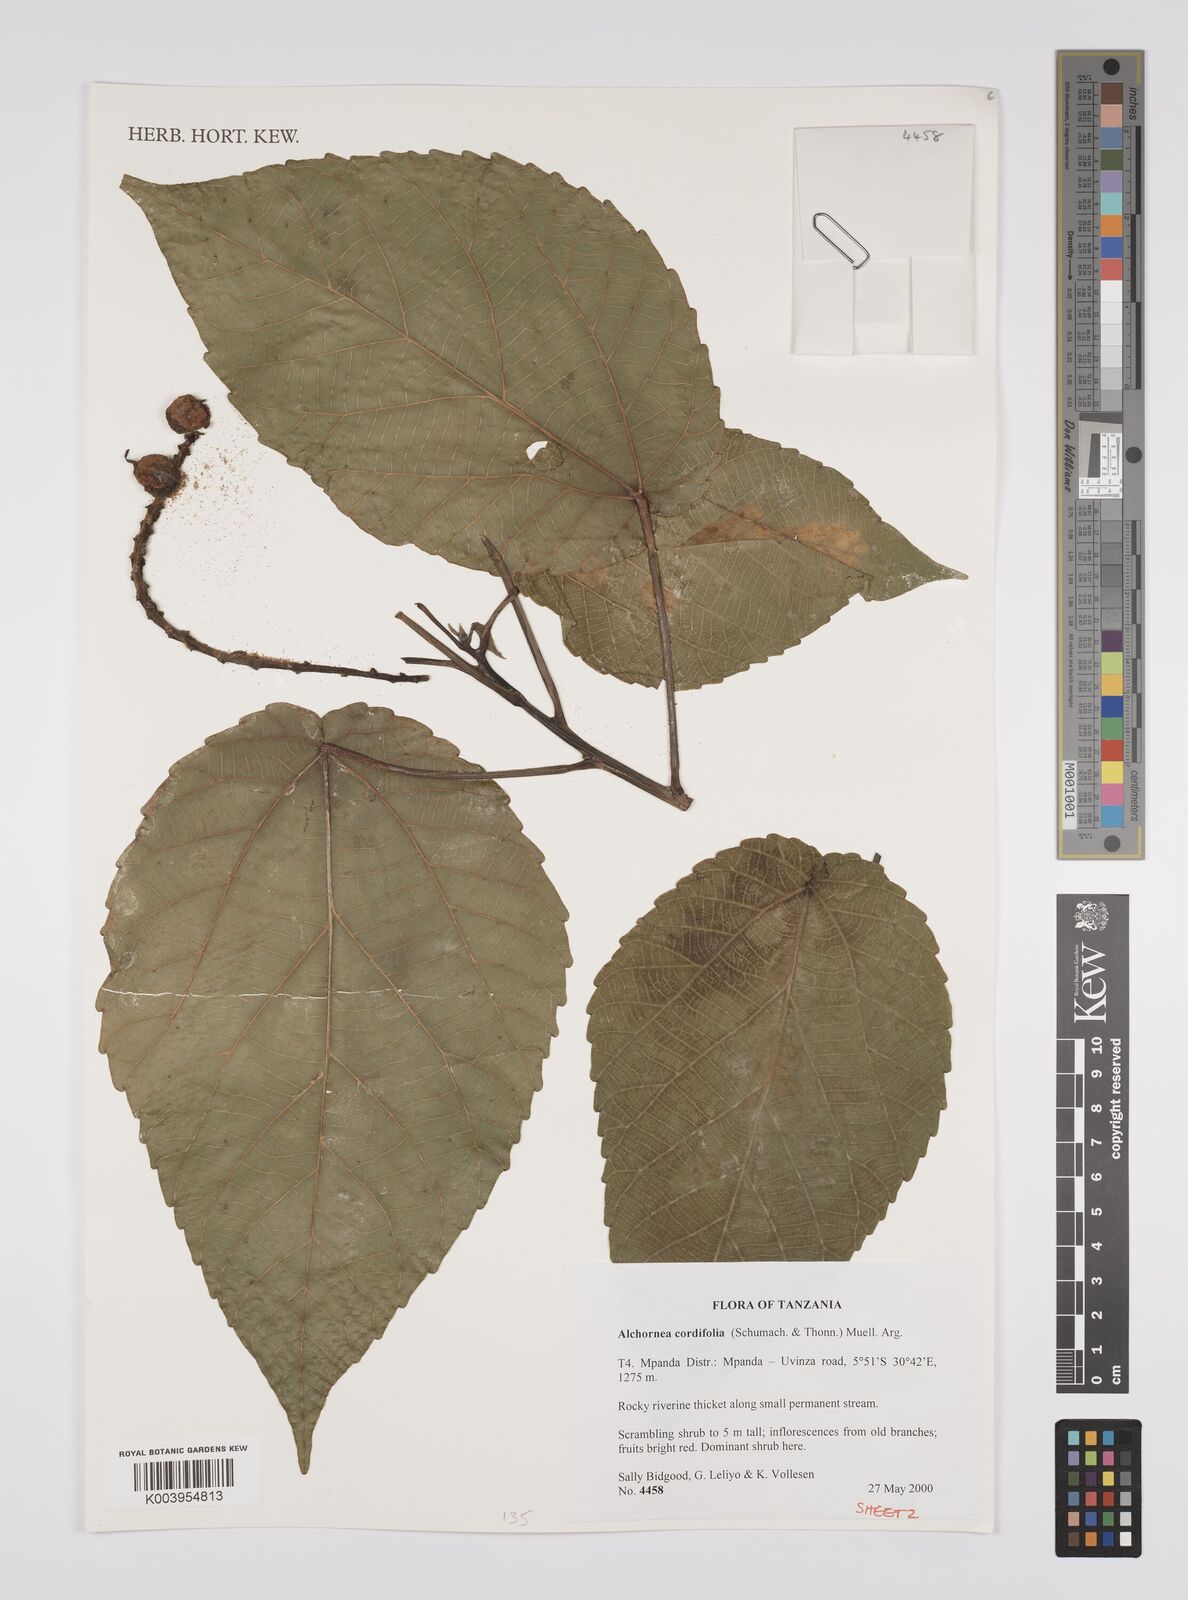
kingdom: Plantae
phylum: Tracheophyta
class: Magnoliopsida
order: Malpighiales
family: Euphorbiaceae
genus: Alchornea
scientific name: Alchornea cordifolia
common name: Christmasbush
